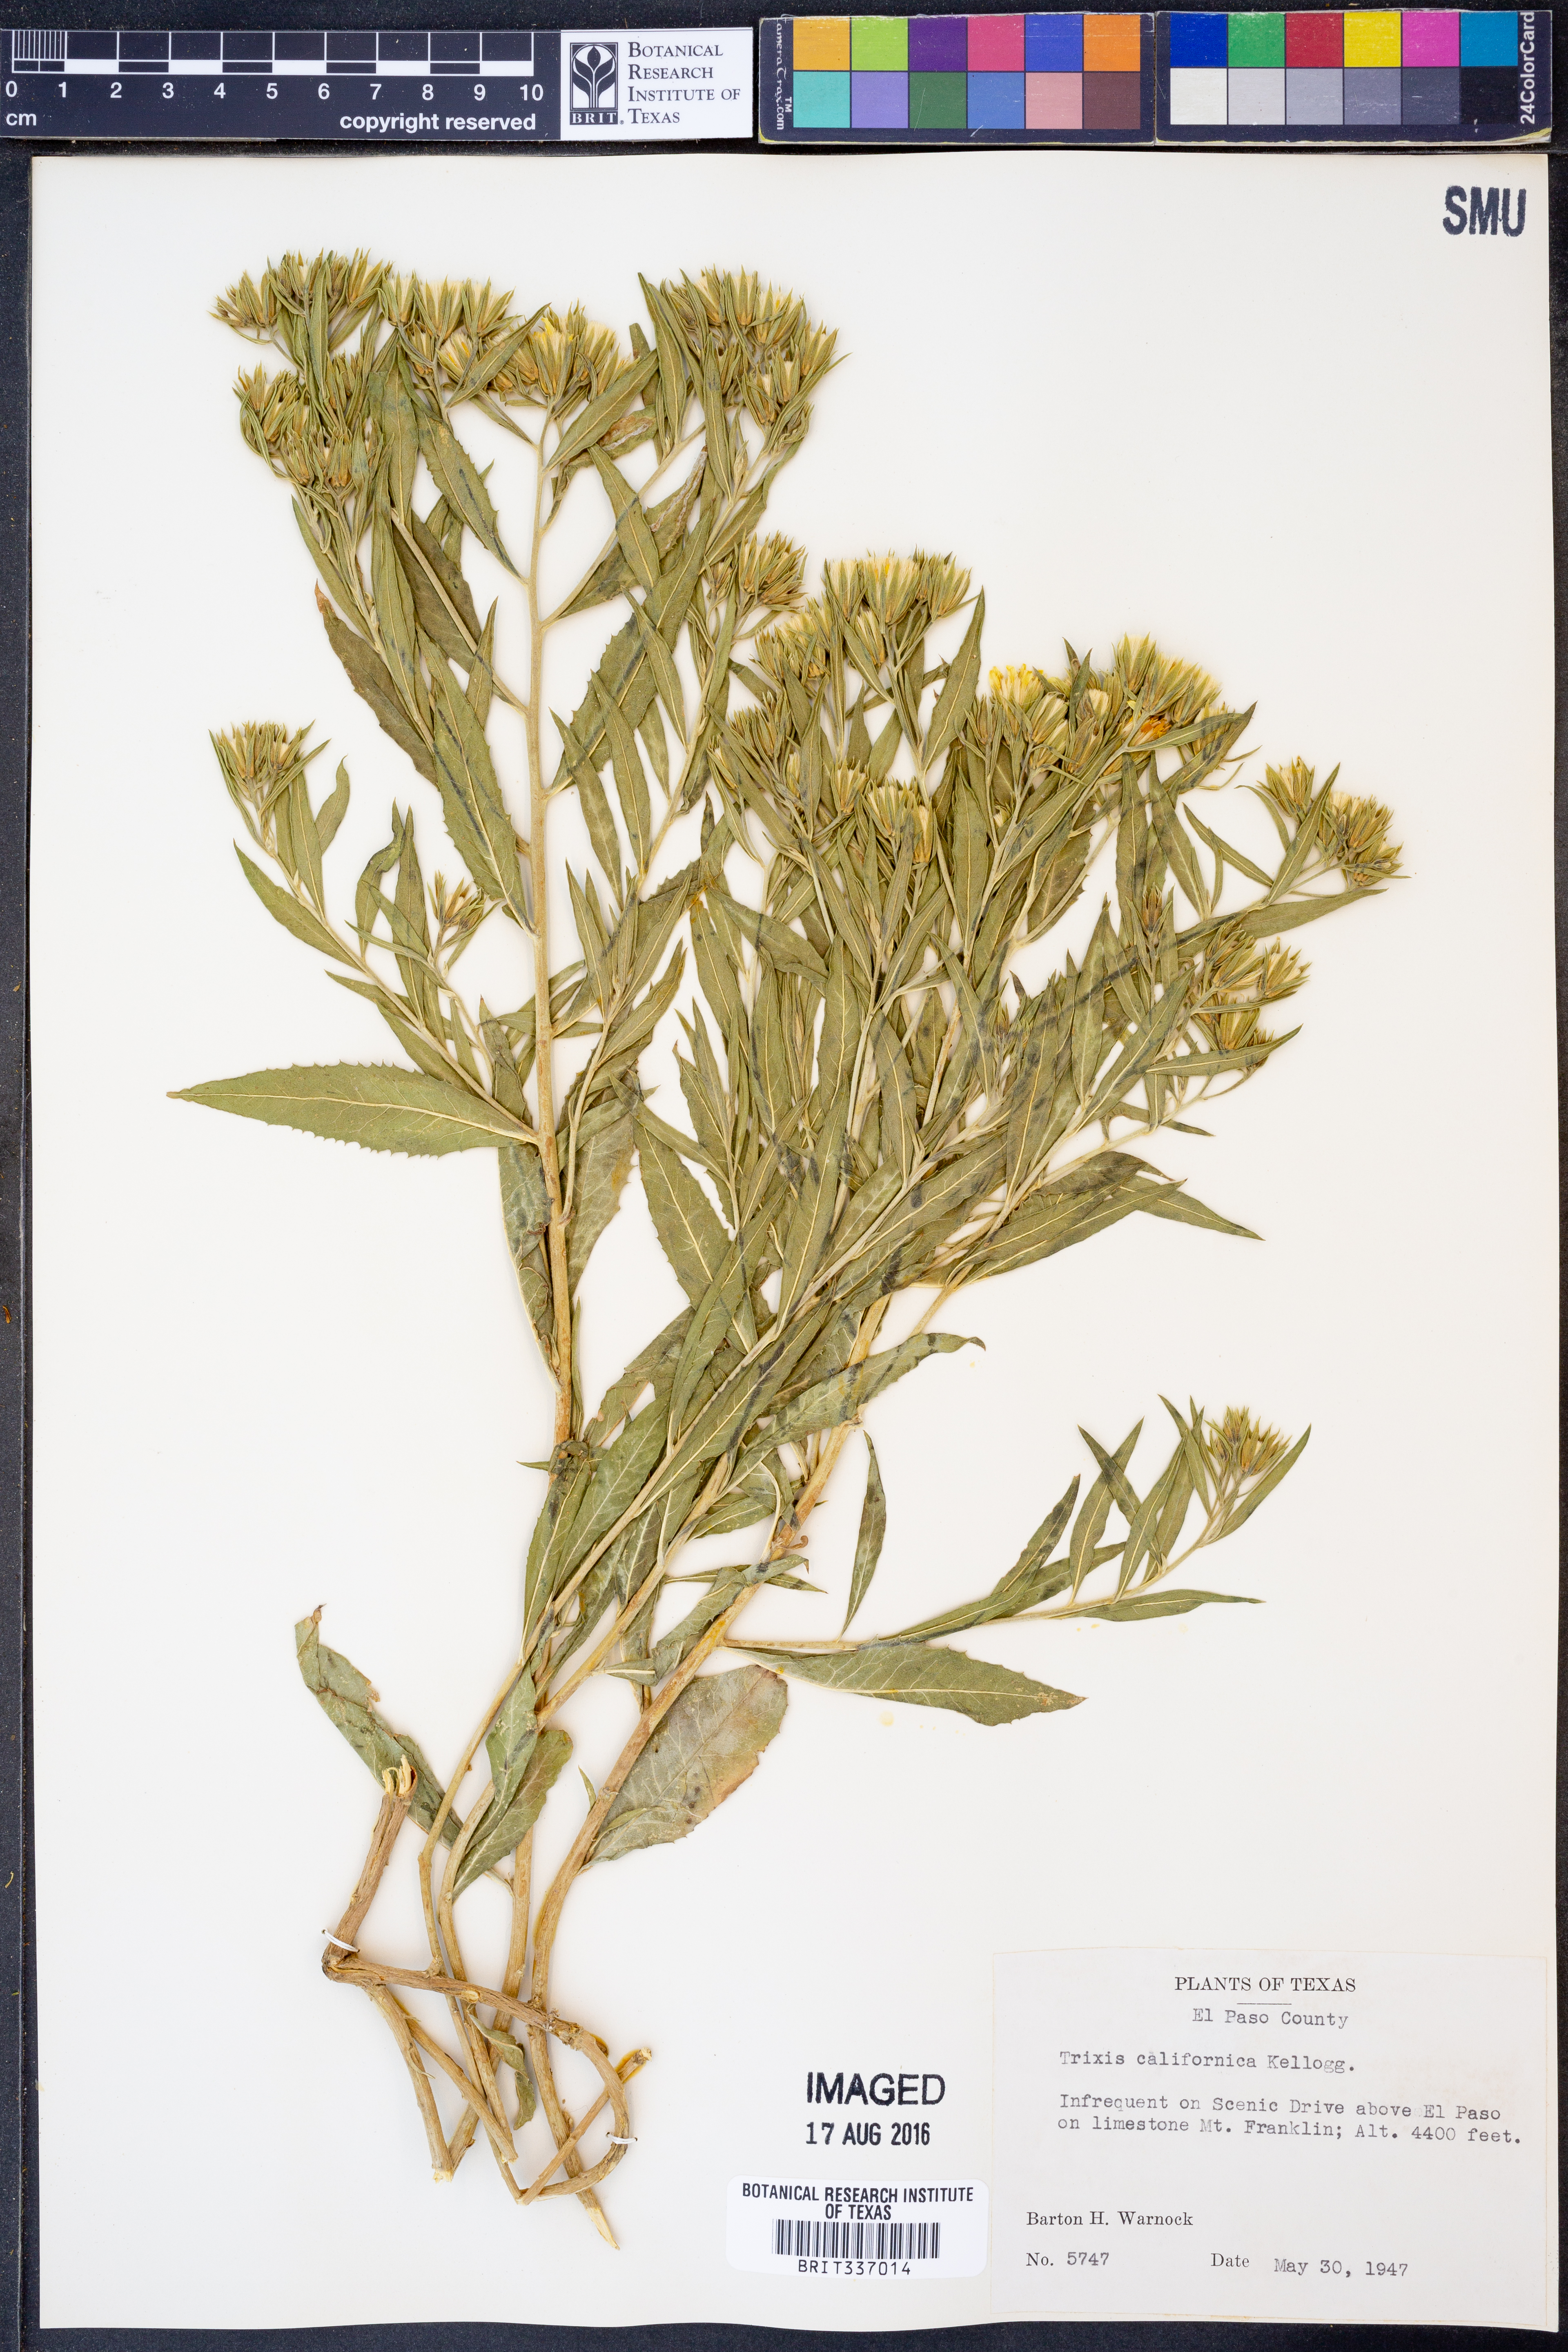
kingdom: Plantae
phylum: Tracheophyta
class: Magnoliopsida
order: Asterales
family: Asteraceae
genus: Trixis
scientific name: Trixis californica
